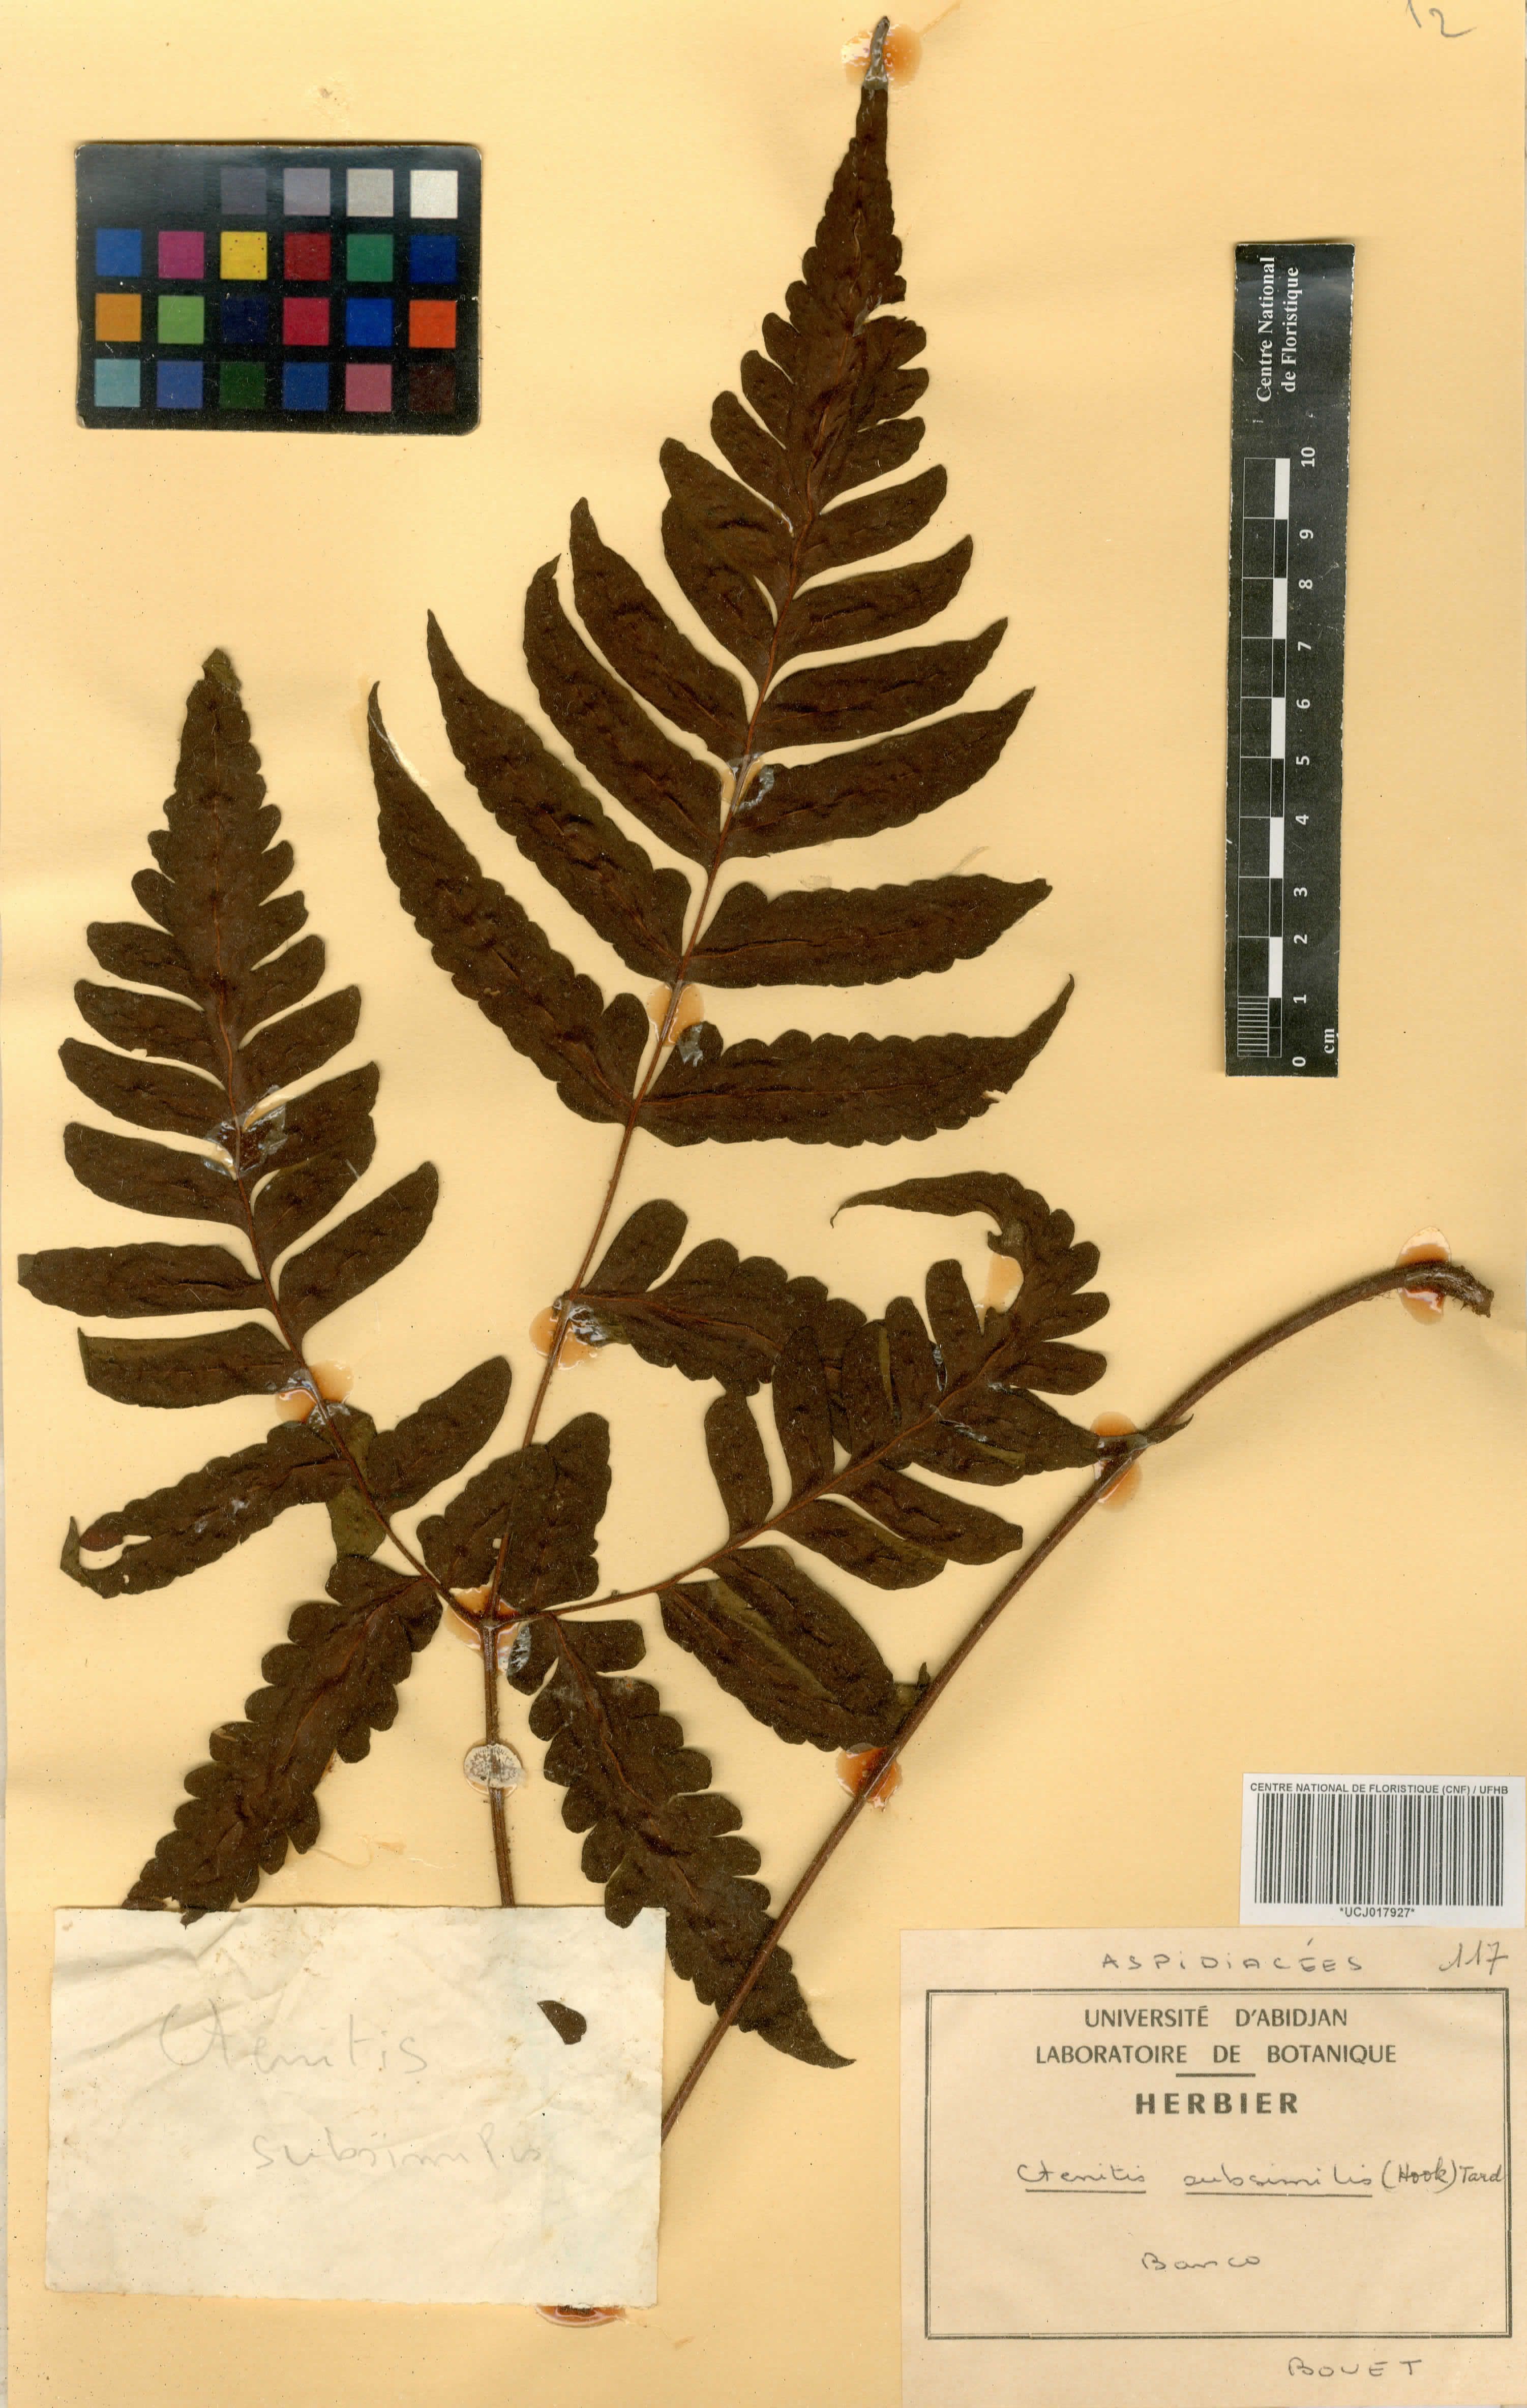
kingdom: Plantae
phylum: Tracheophyta
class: Polypodiopsida
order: Polypodiales
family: Dryopteridaceae
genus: Parapolystichum
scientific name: Parapolystichum subsimile
